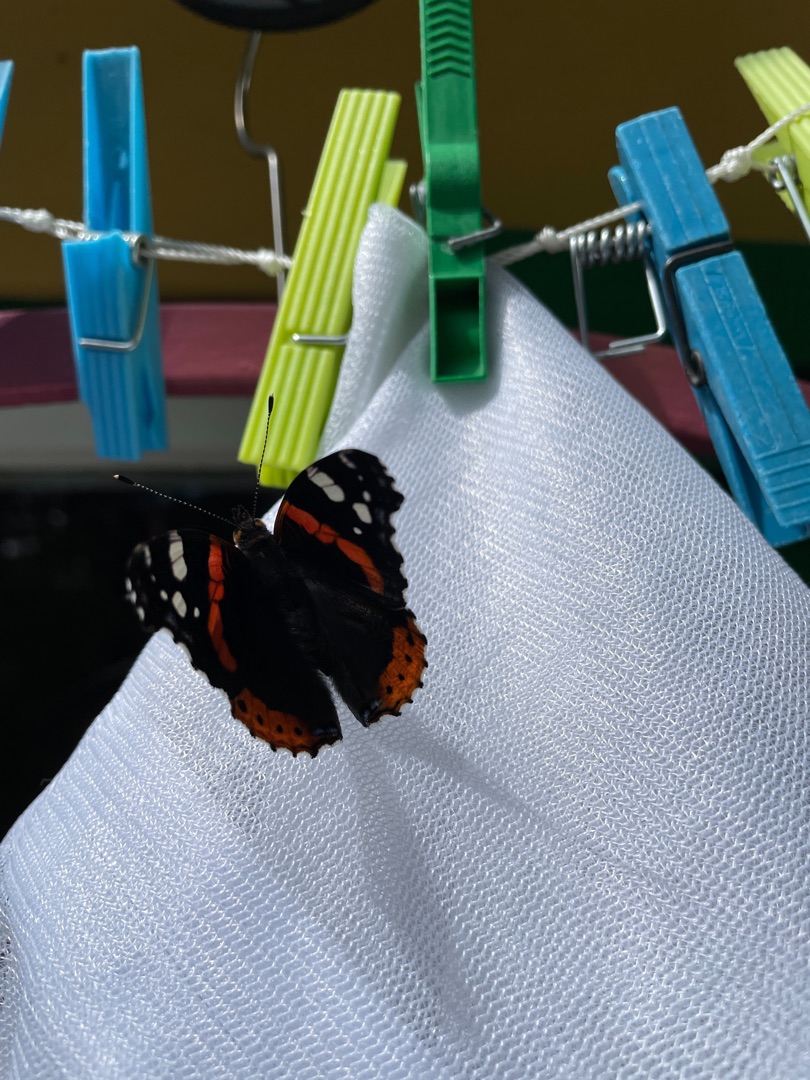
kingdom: Animalia
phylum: Arthropoda
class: Insecta
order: Lepidoptera
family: Nymphalidae
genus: Vanessa
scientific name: Vanessa atalanta
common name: Admiral
